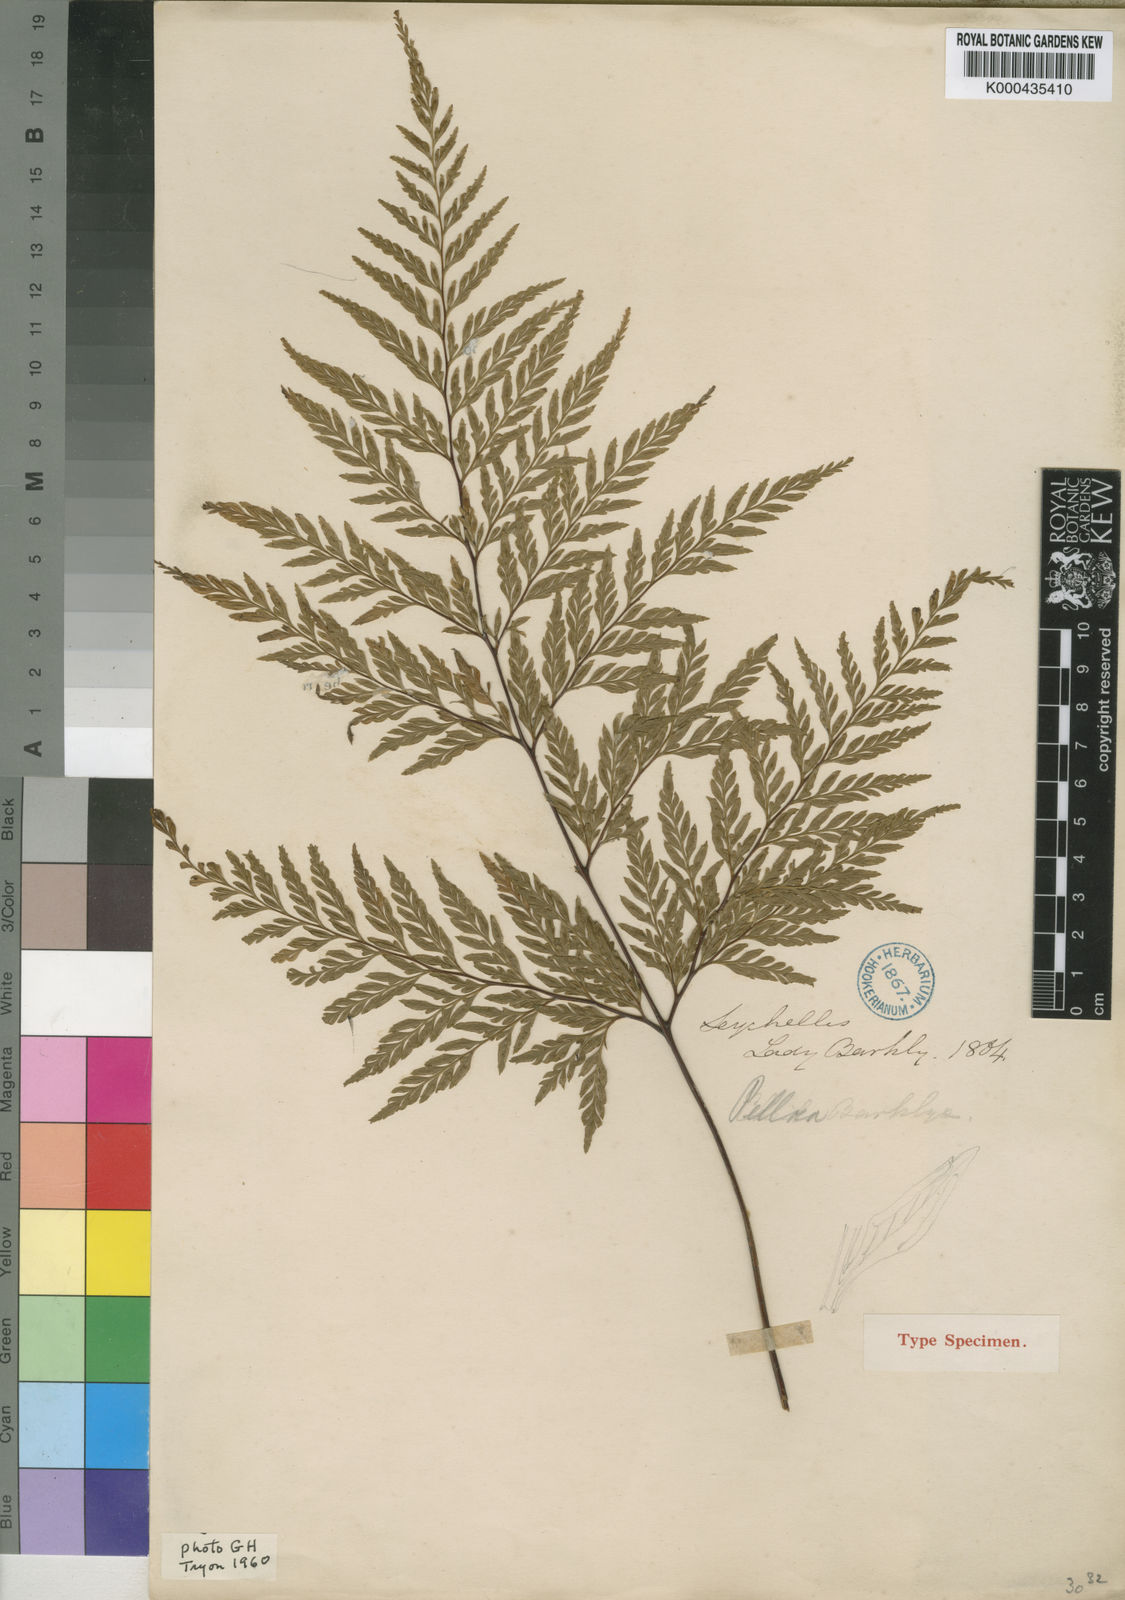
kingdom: Plantae
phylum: Tracheophyta
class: Polypodiopsida
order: Polypodiales
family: Pteridaceae
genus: Pteris
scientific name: Pteris barklyae
